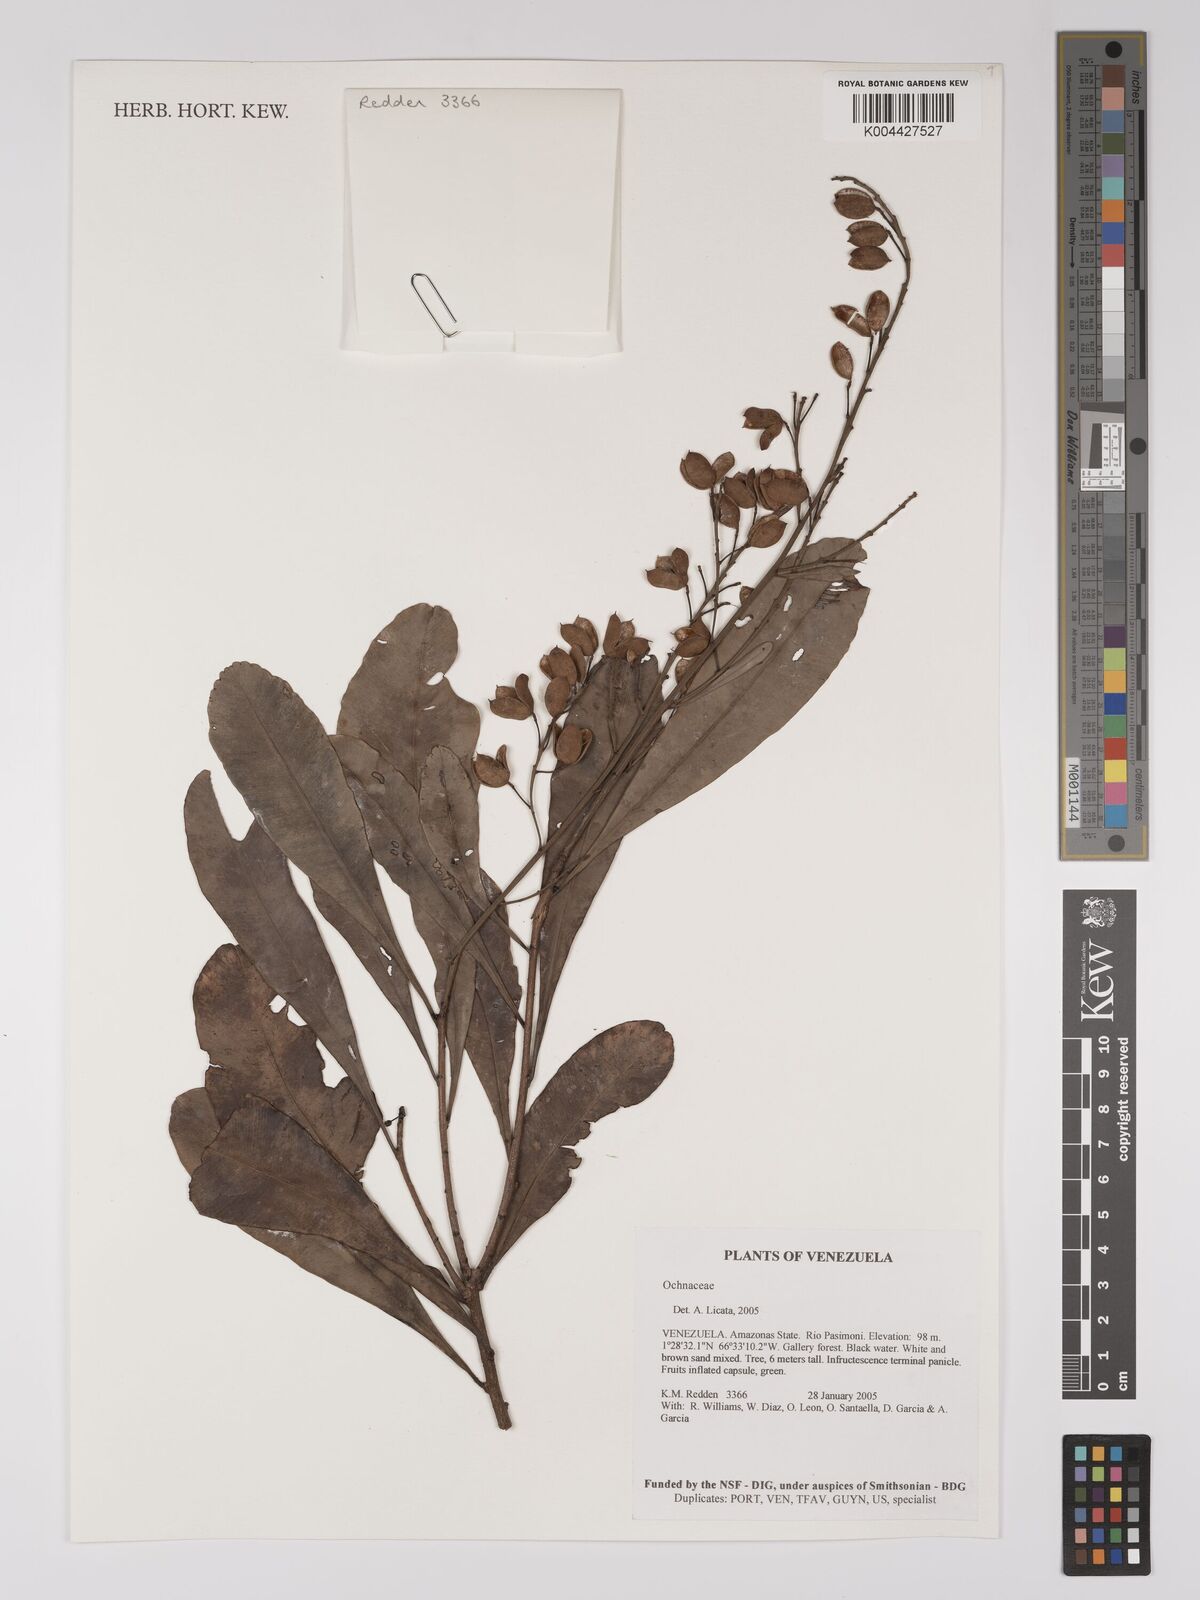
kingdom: Plantae
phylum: Tracheophyta
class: Magnoliopsida
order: Malpighiales
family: Ochnaceae
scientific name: Ochnaceae
